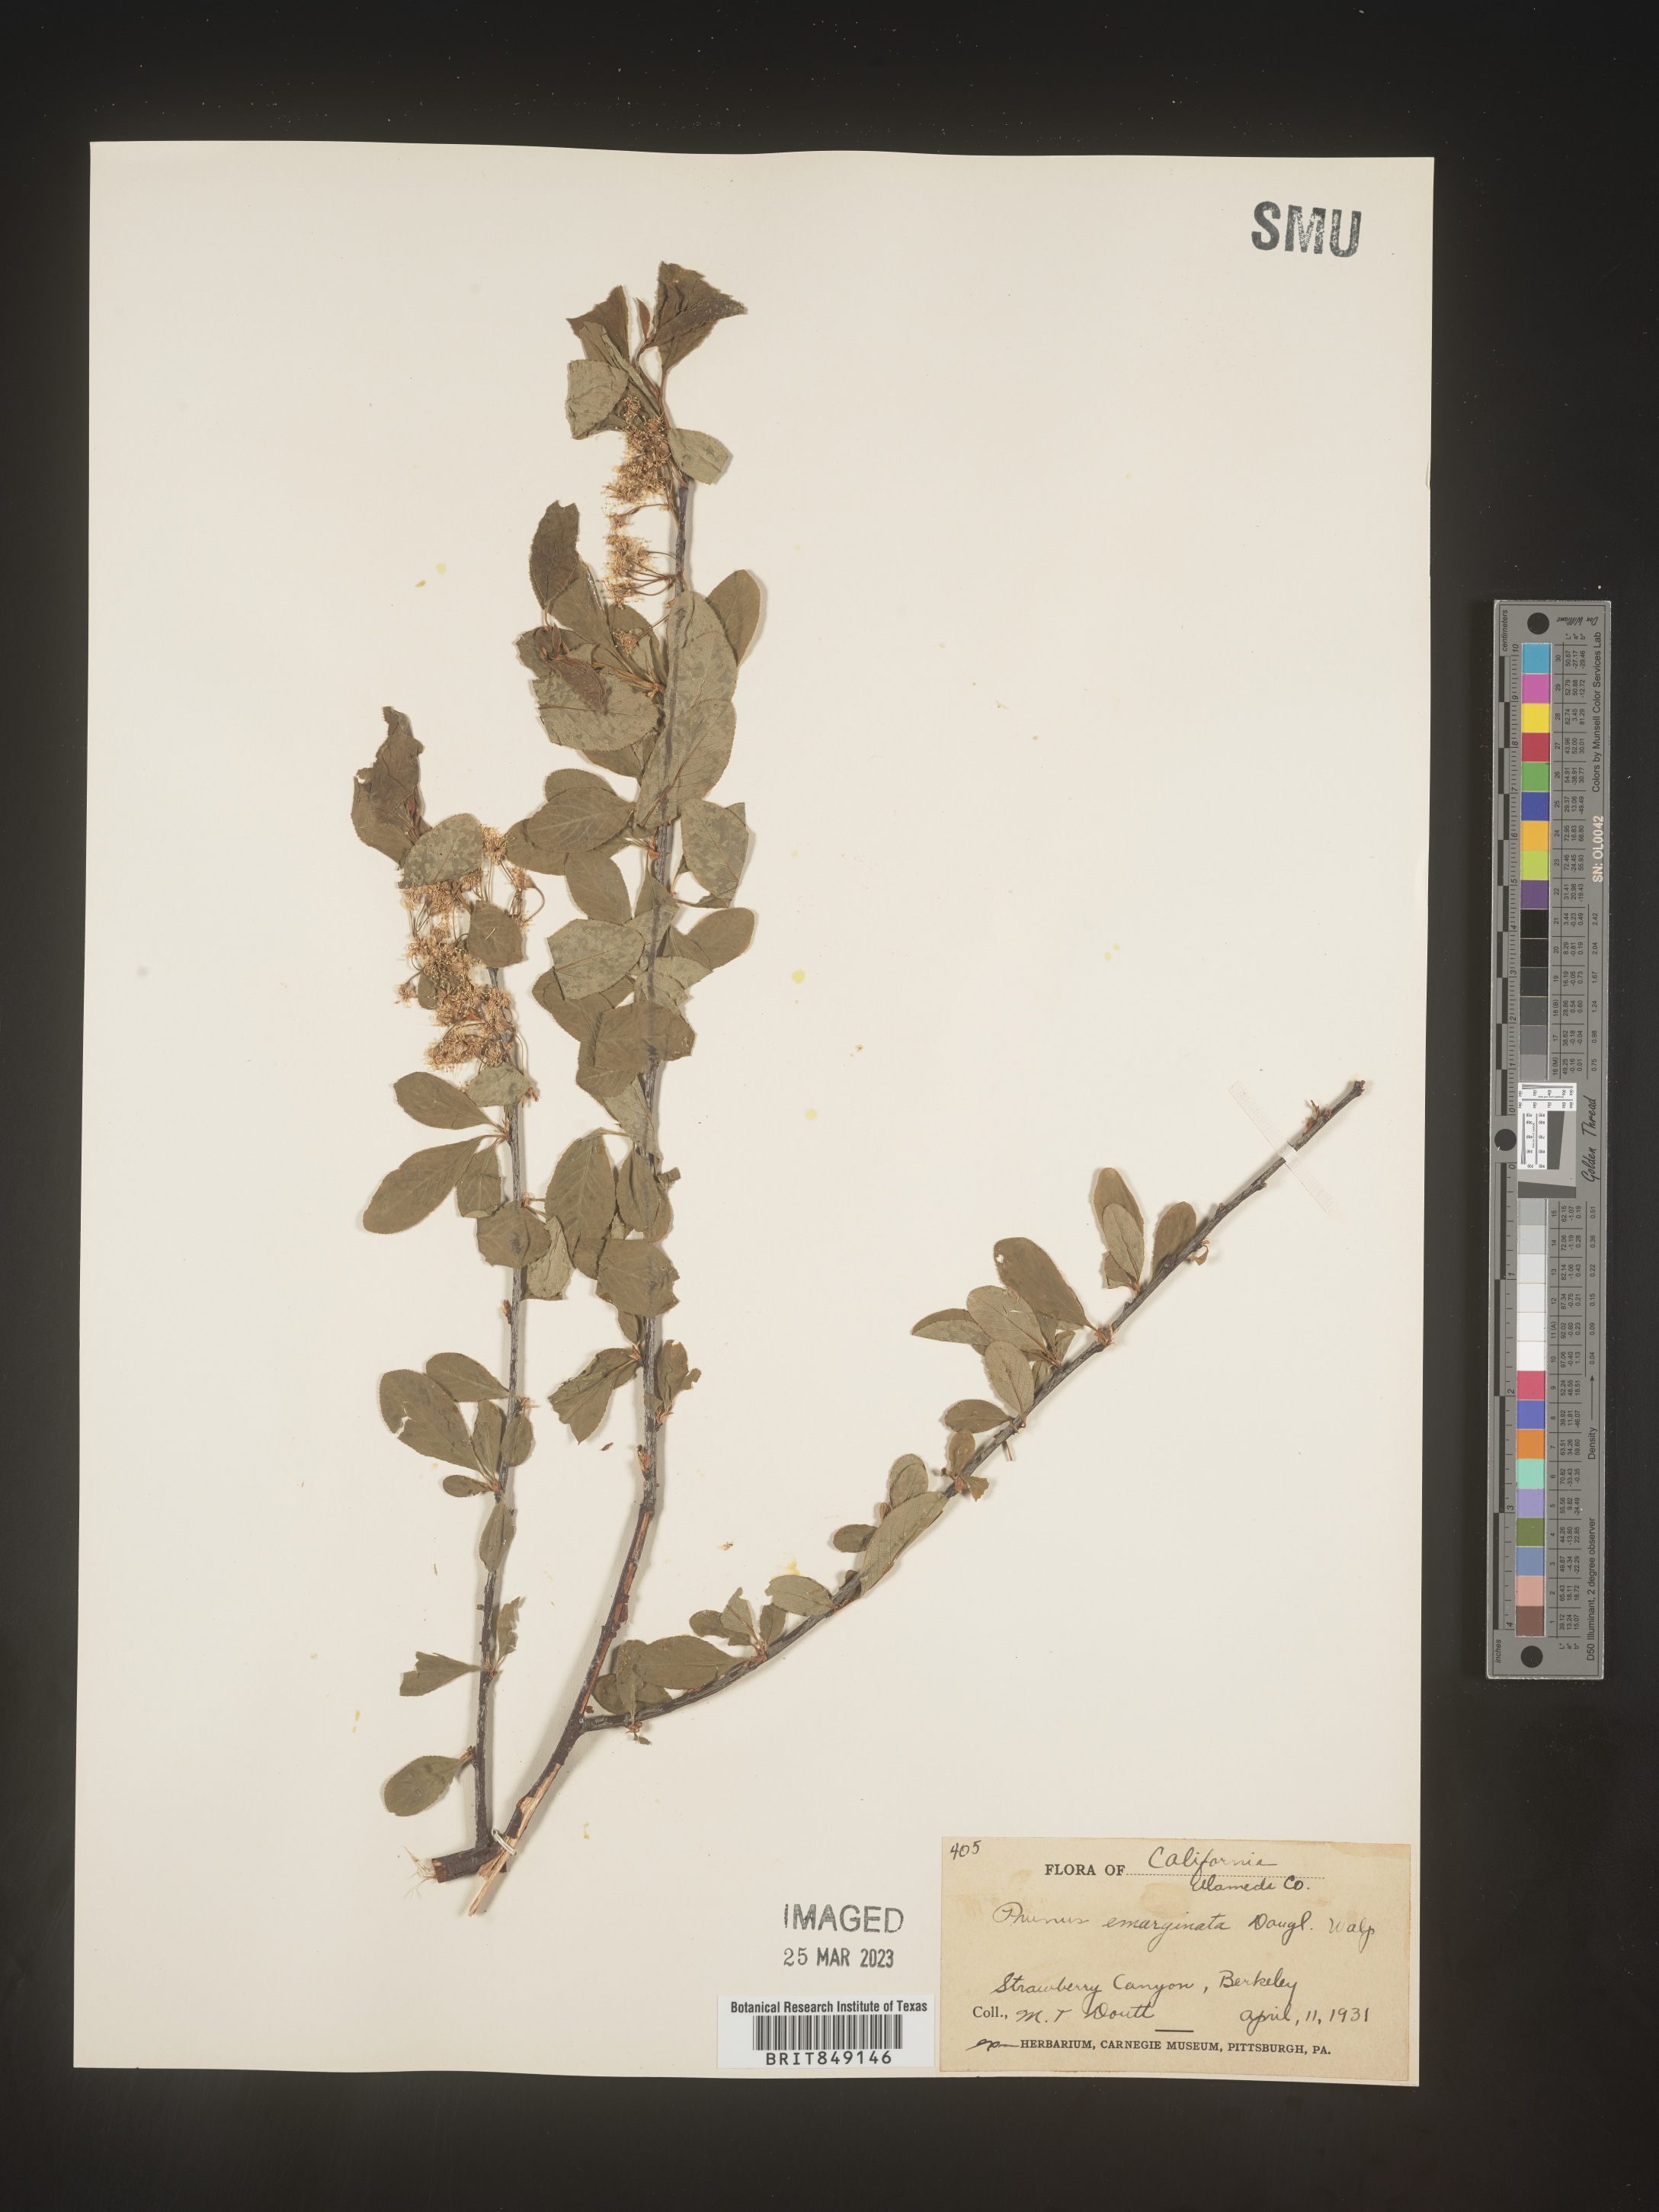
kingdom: Plantae
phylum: Tracheophyta
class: Magnoliopsida
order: Rosales
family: Rosaceae
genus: Prunus
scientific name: Prunus emarginata
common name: Bitter cherry
